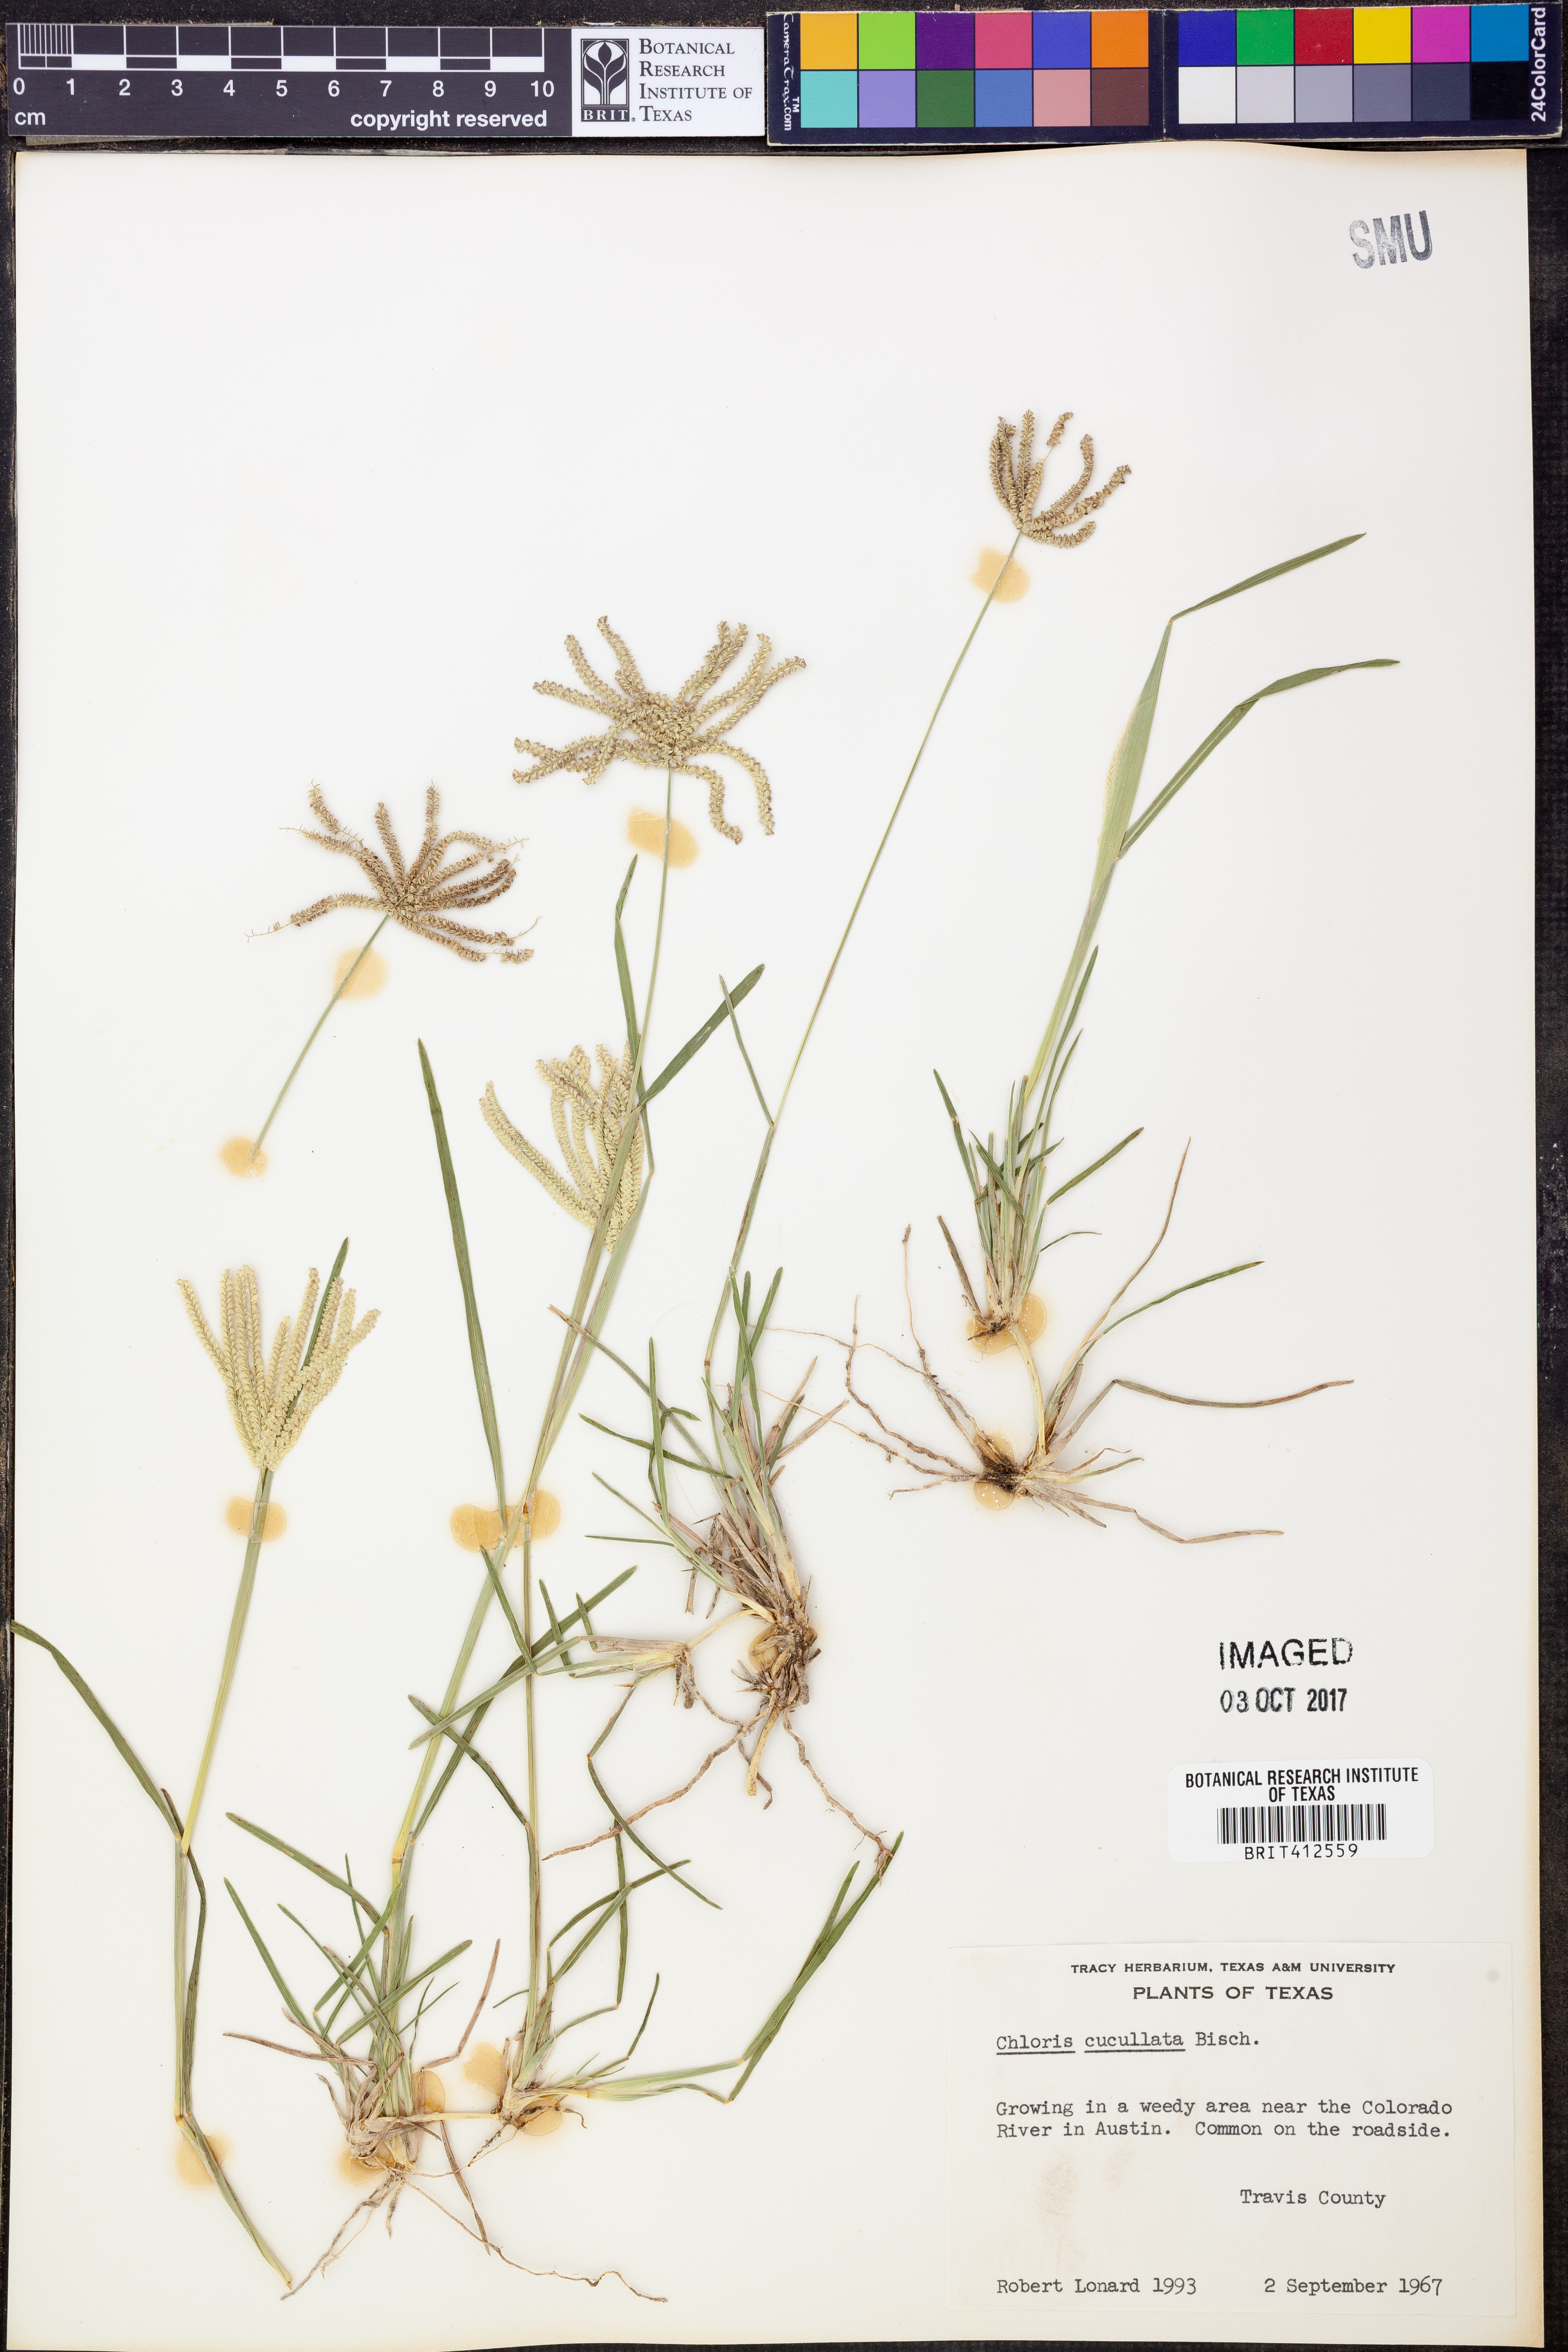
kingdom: Plantae
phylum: Tracheophyta
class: Liliopsida
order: Poales
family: Poaceae
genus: Chloris
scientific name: Chloris cucullata
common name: Hooded windmill grass
